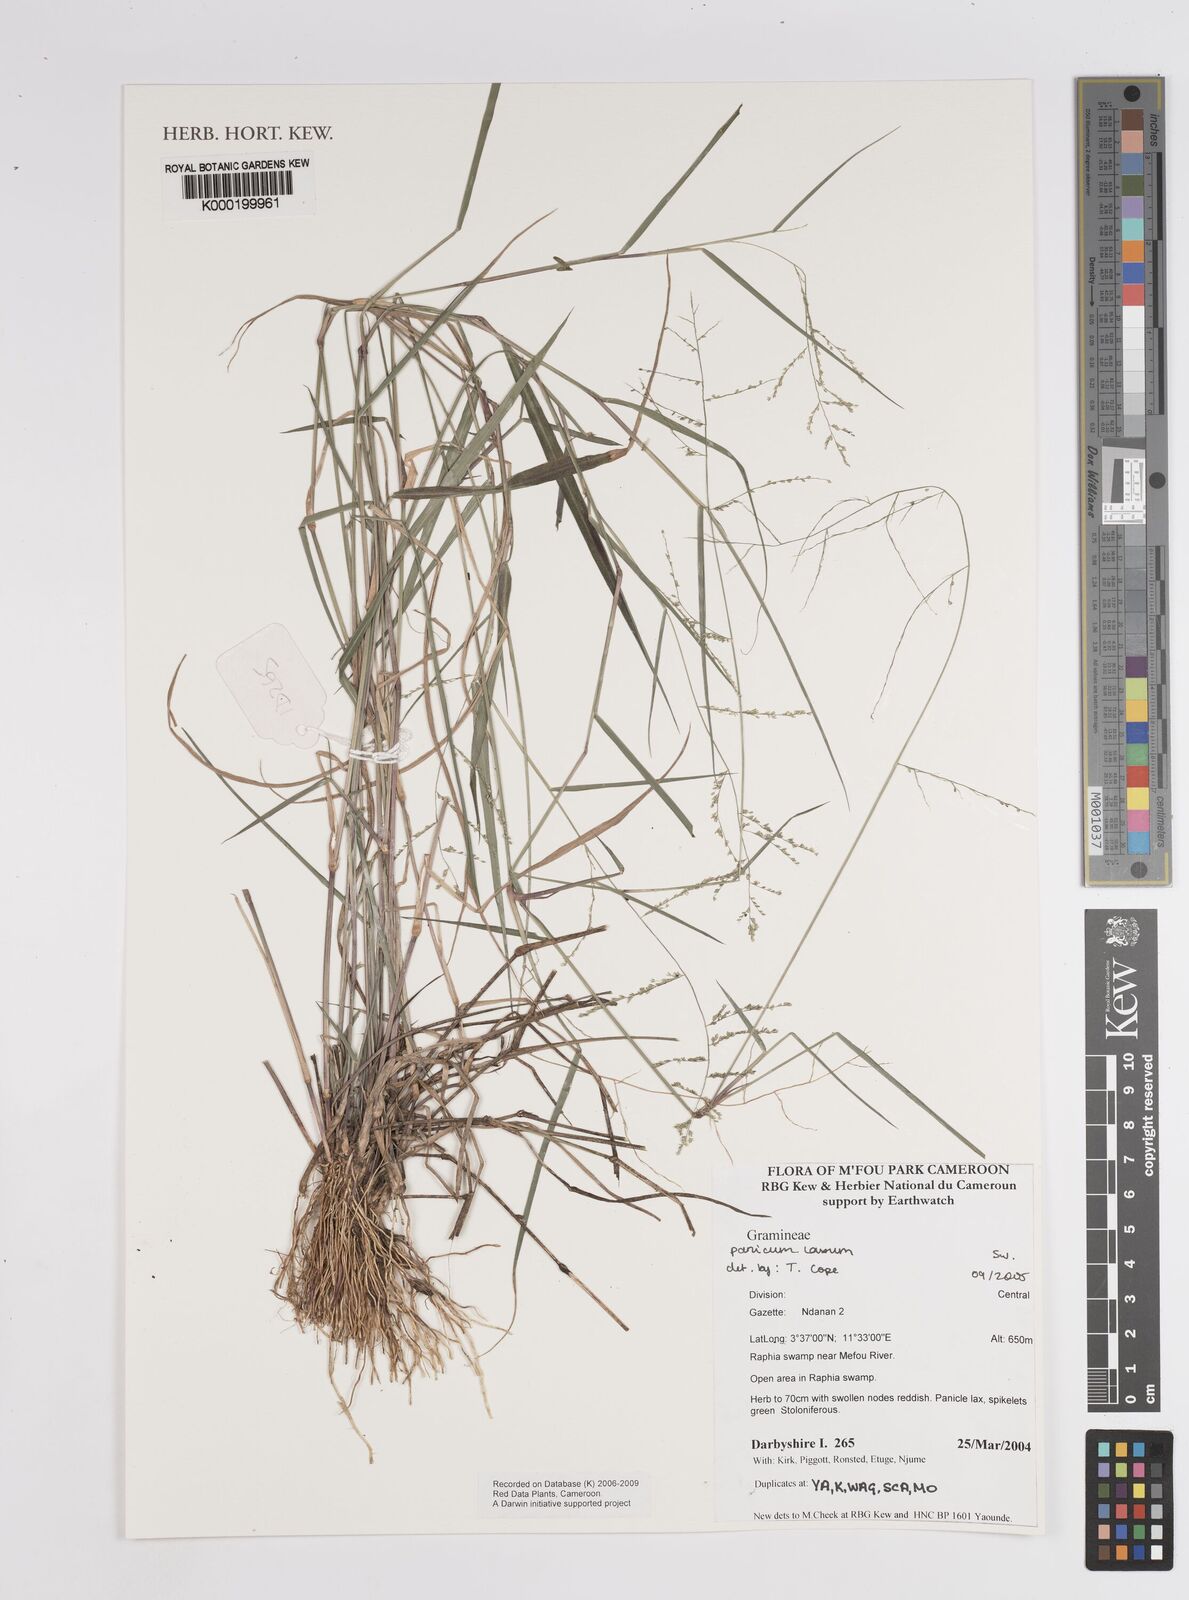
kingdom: Plantae
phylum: Tracheophyta
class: Liliopsida
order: Poales
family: Poaceae
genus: Steinchisma
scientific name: Steinchisma laxum
